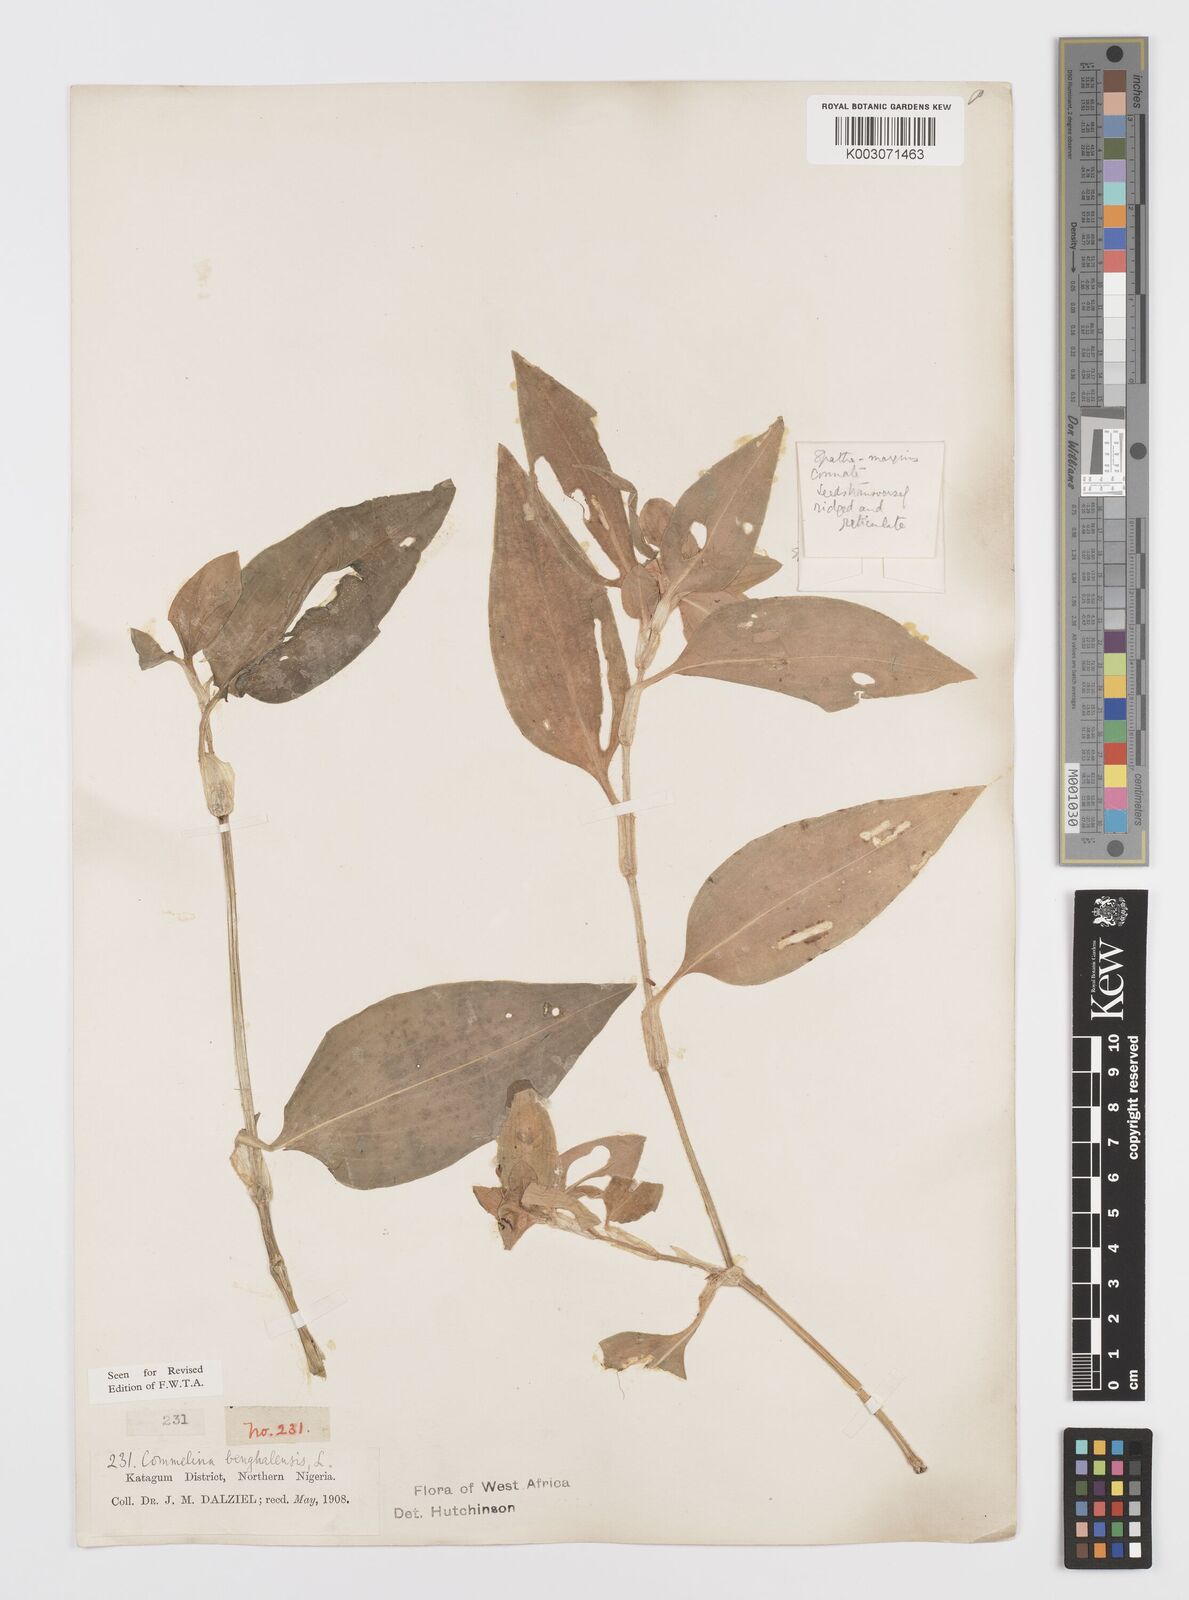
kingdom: Plantae
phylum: Tracheophyta
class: Liliopsida
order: Commelinales
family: Commelinaceae
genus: Commelina
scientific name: Commelina africana
